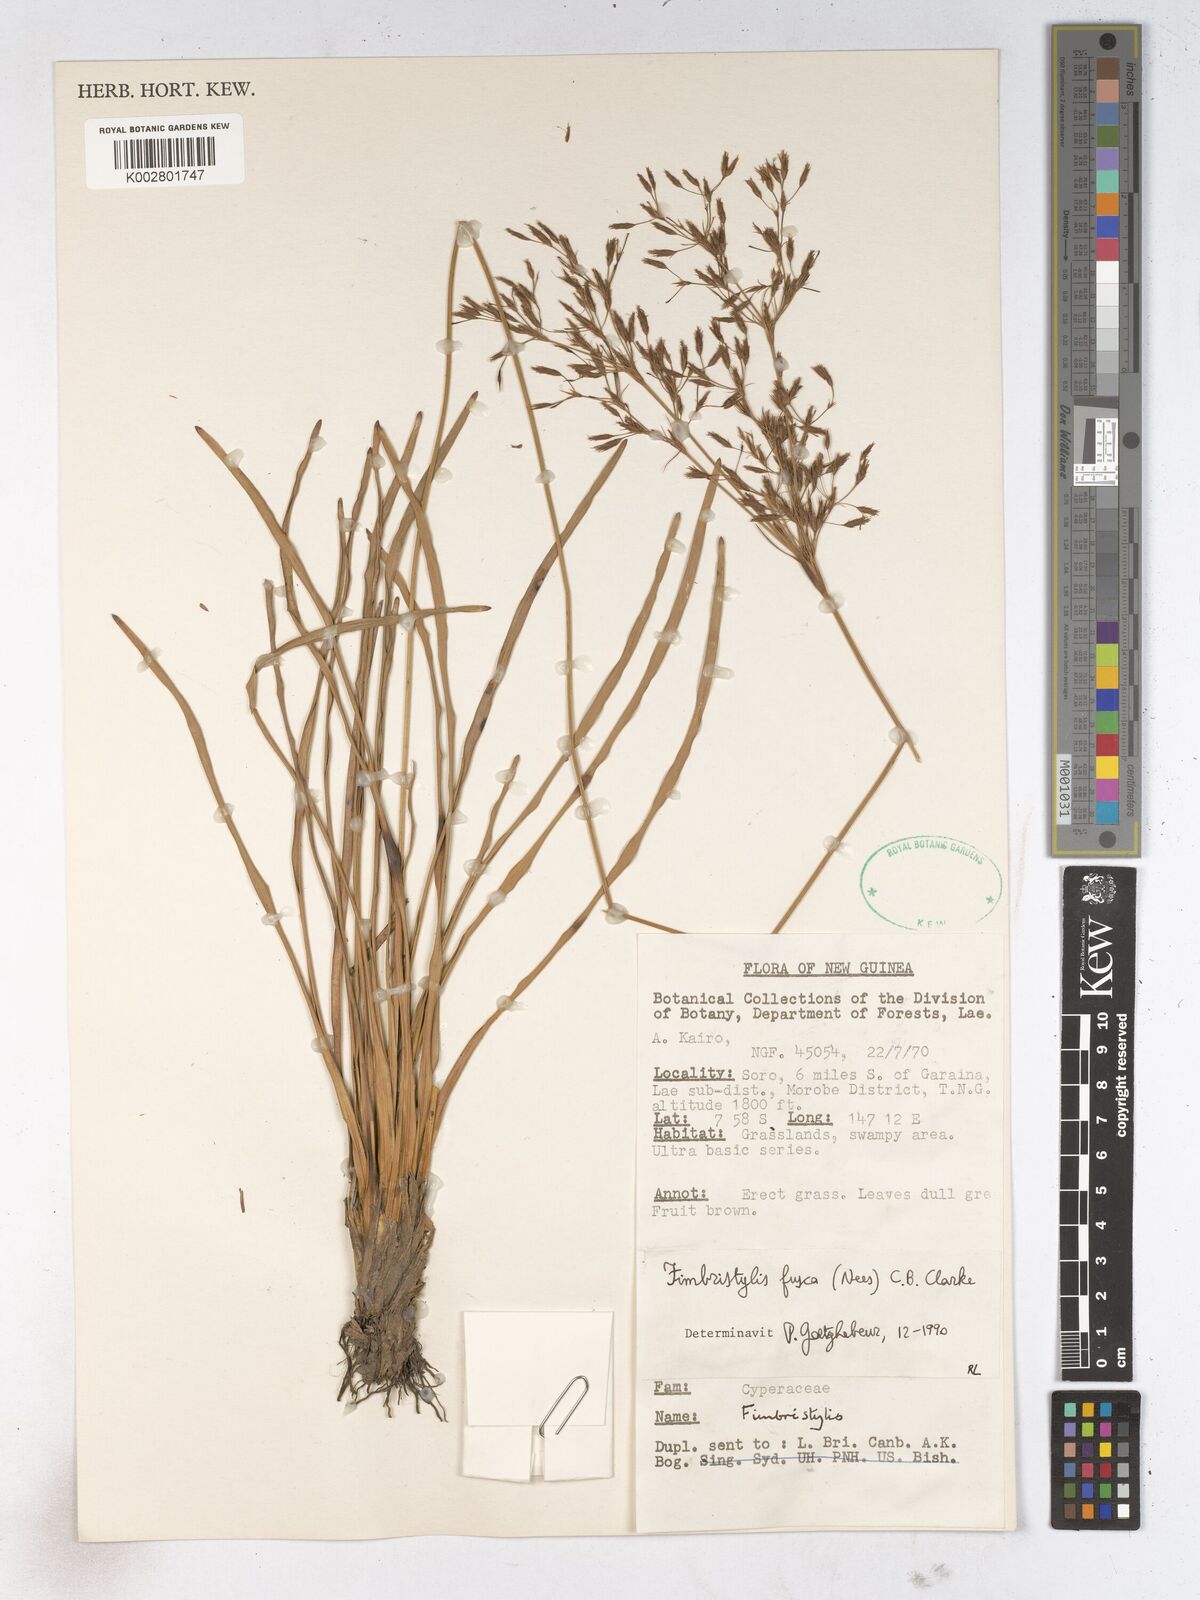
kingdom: Plantae
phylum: Tracheophyta
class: Liliopsida
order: Poales
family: Cyperaceae
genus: Fimbristylis
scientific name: Fimbristylis fusca
